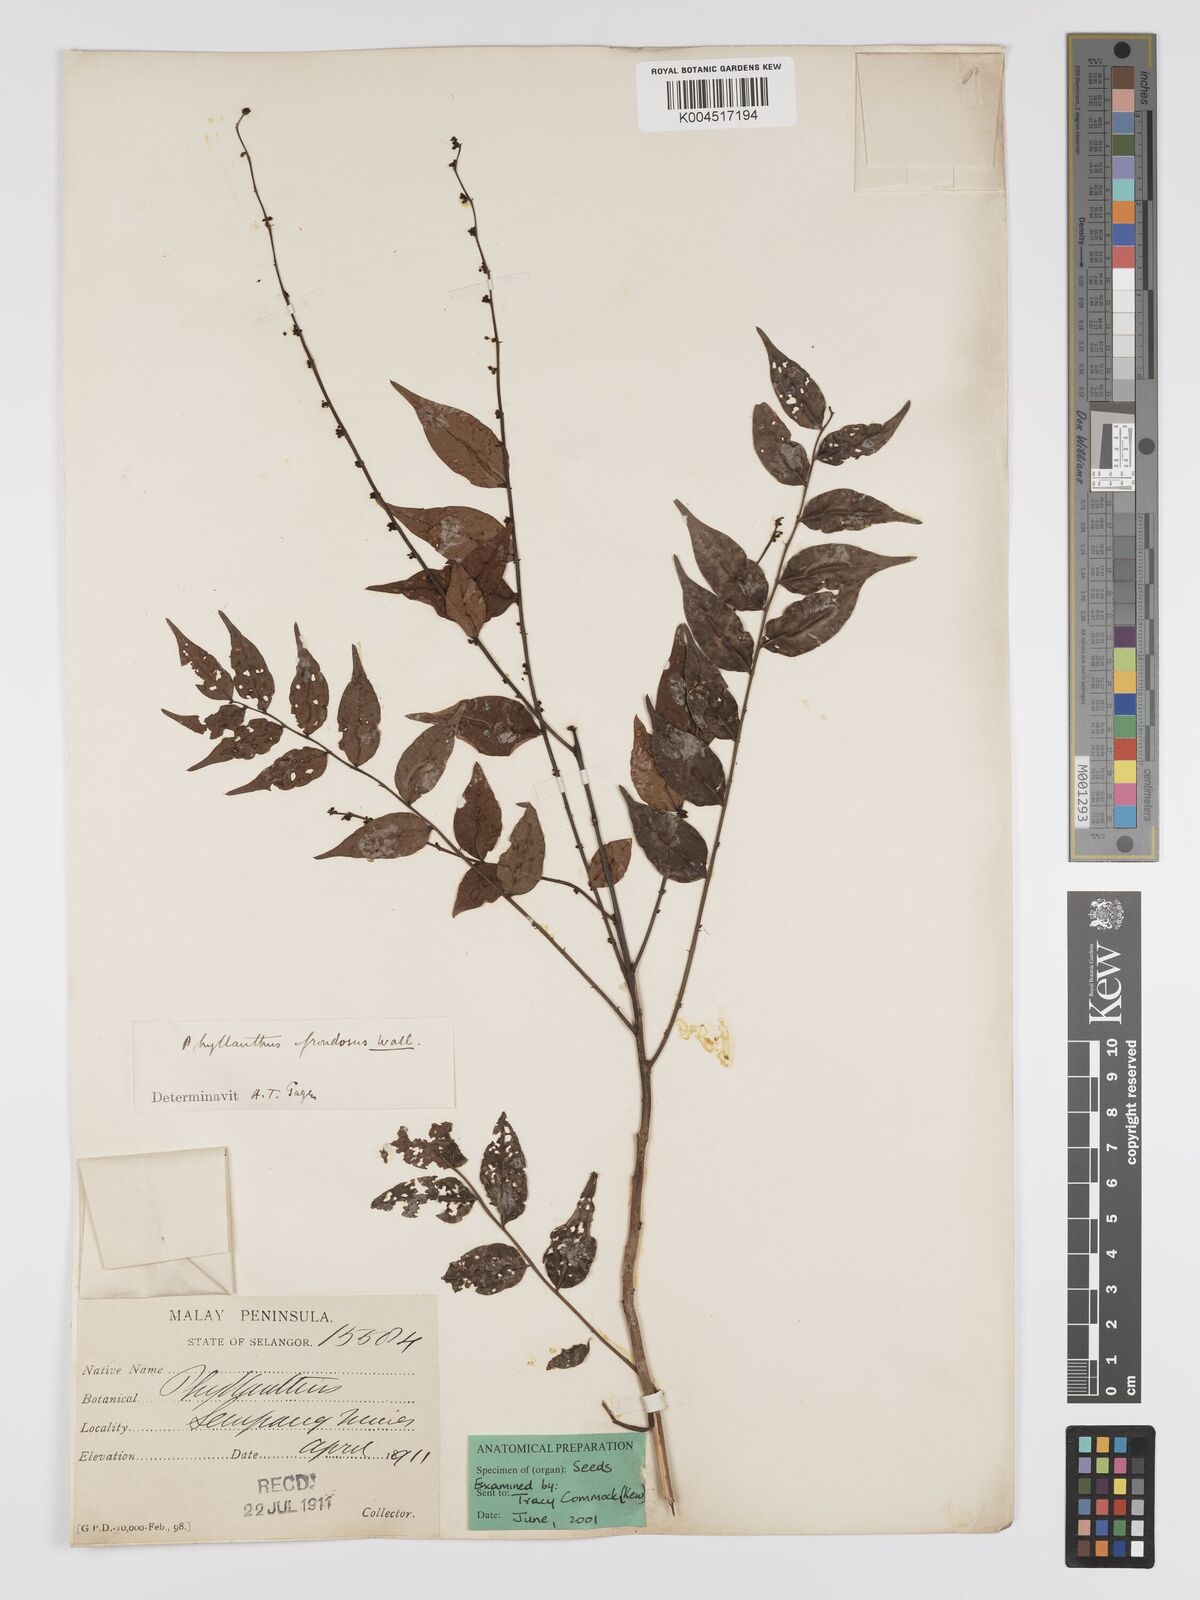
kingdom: Plantae
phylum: Tracheophyta
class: Magnoliopsida
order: Malpighiales
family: Phyllanthaceae
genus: Phyllanthus
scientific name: Phyllanthus
